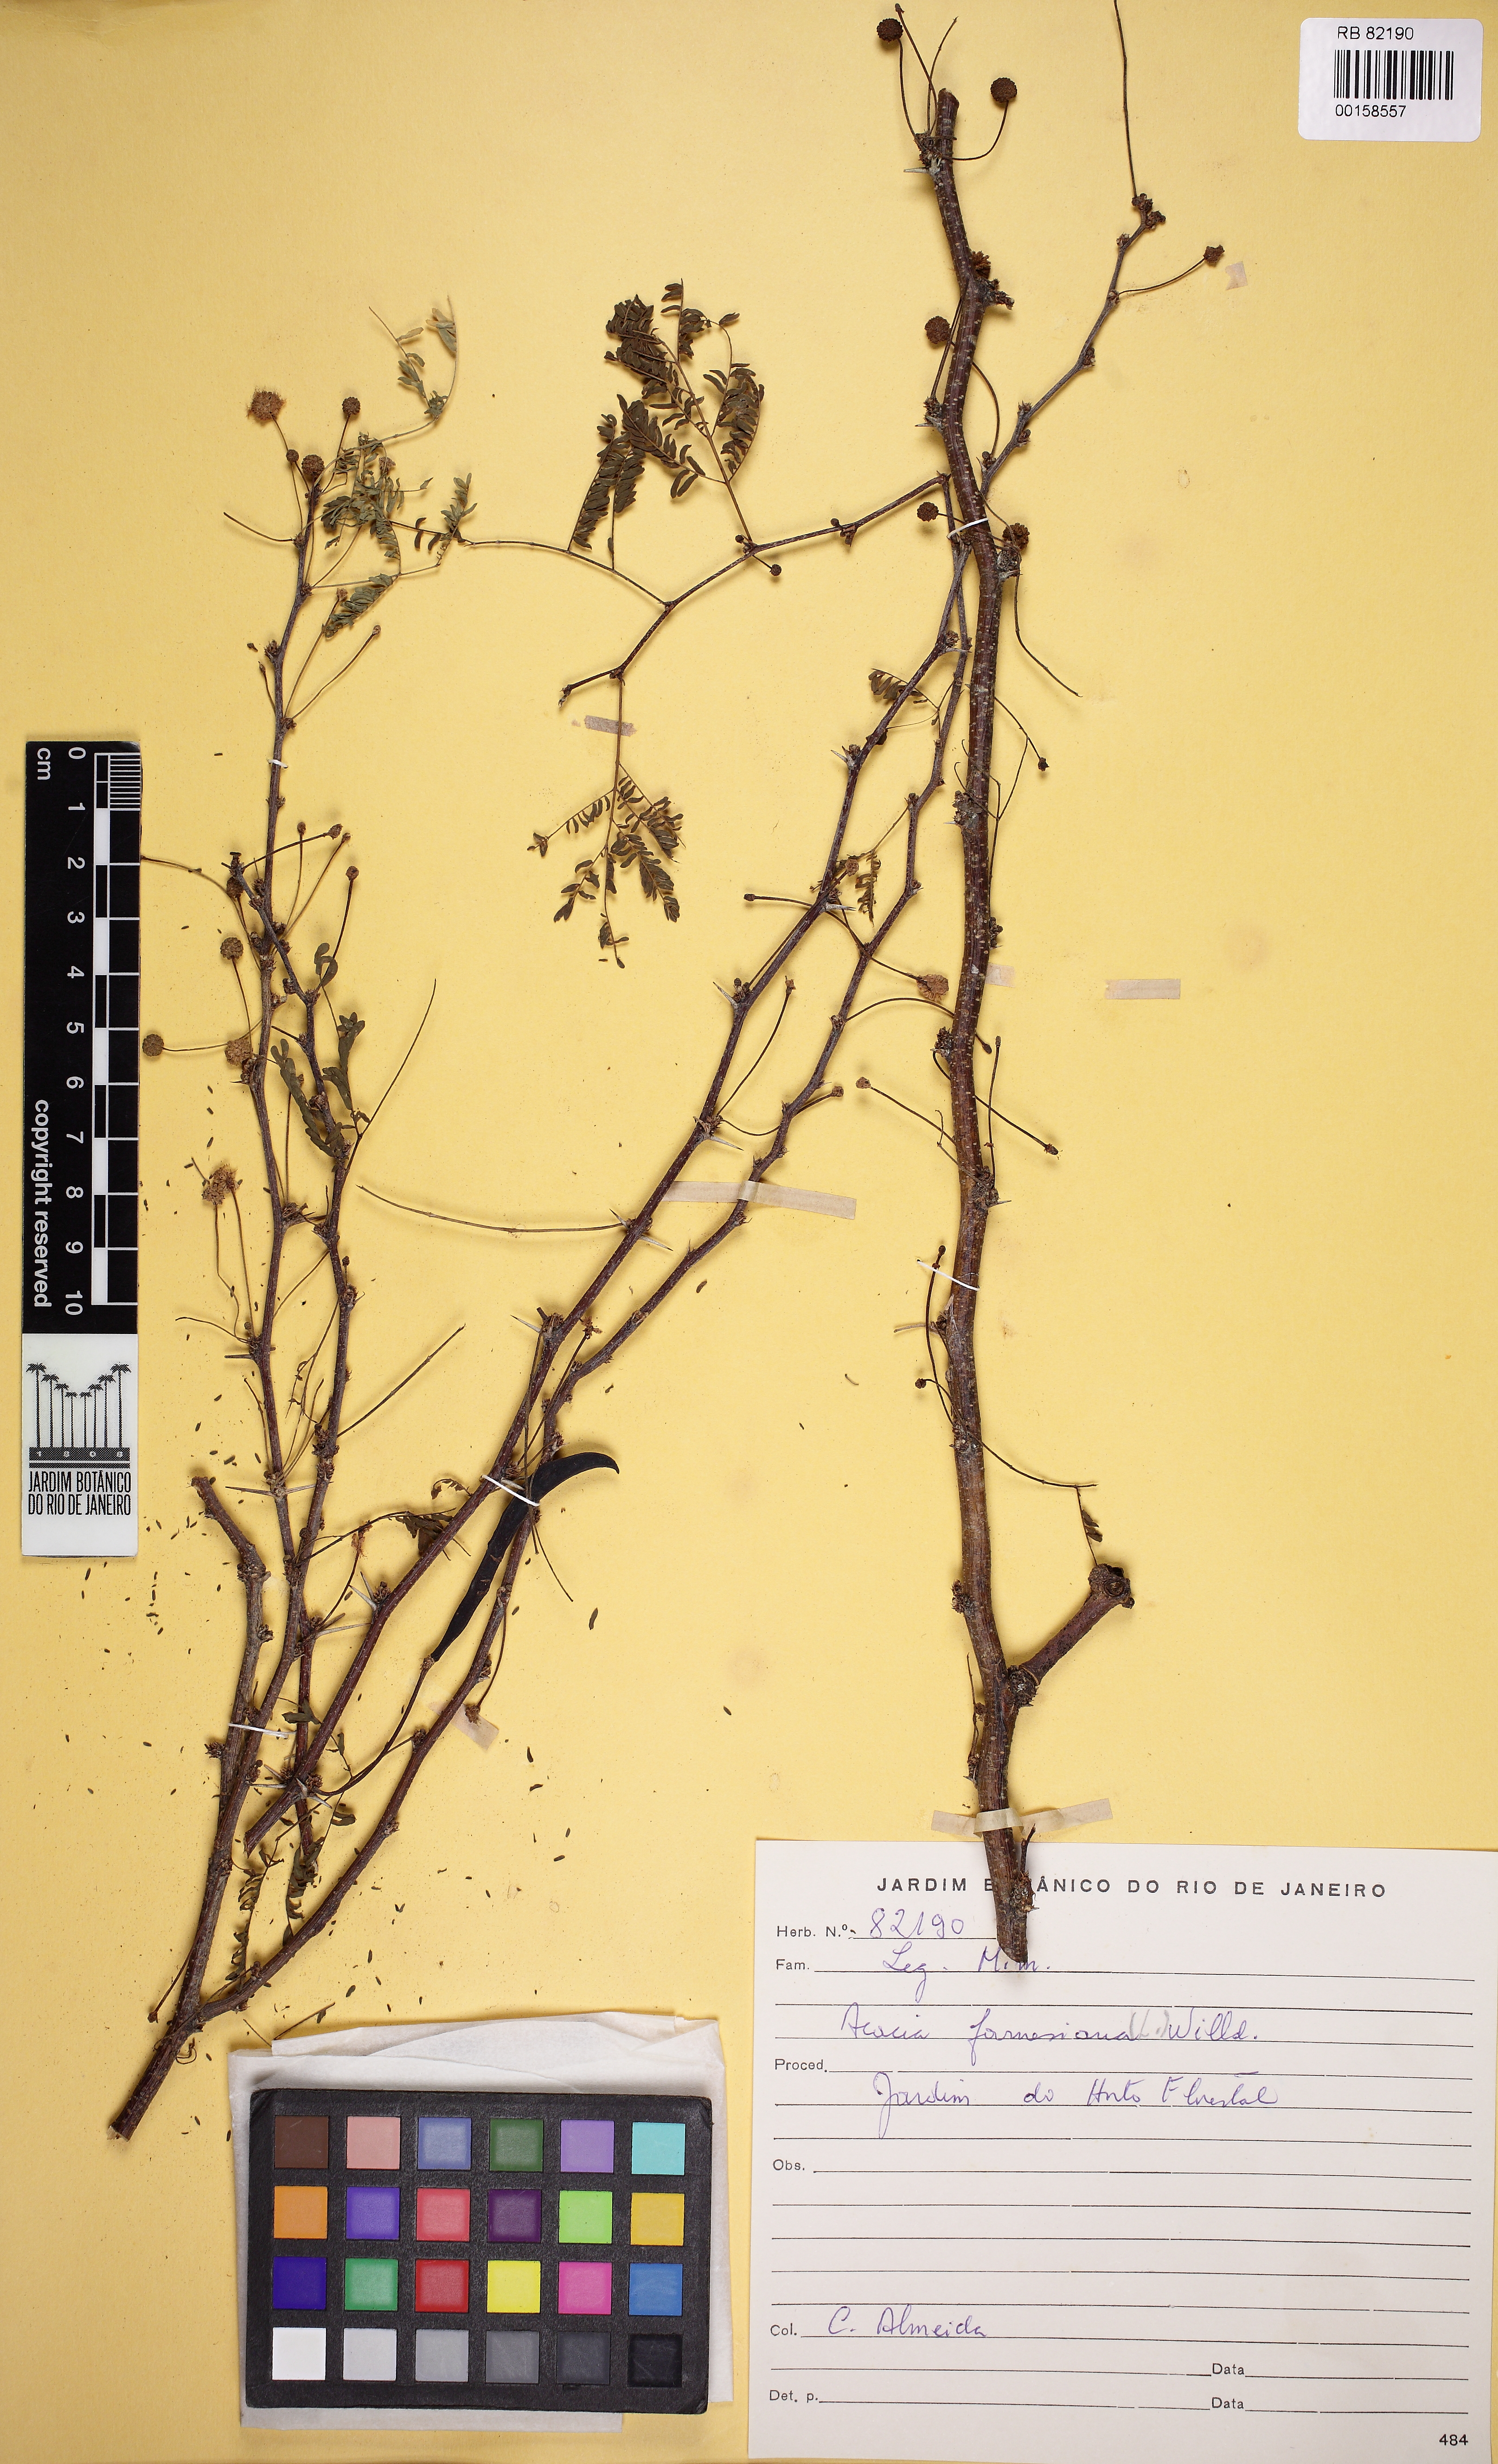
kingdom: Plantae
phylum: Tracheophyta
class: Magnoliopsida
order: Fabales
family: Fabaceae
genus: Vachellia
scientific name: Vachellia farnesiana
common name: Sweet acacia
